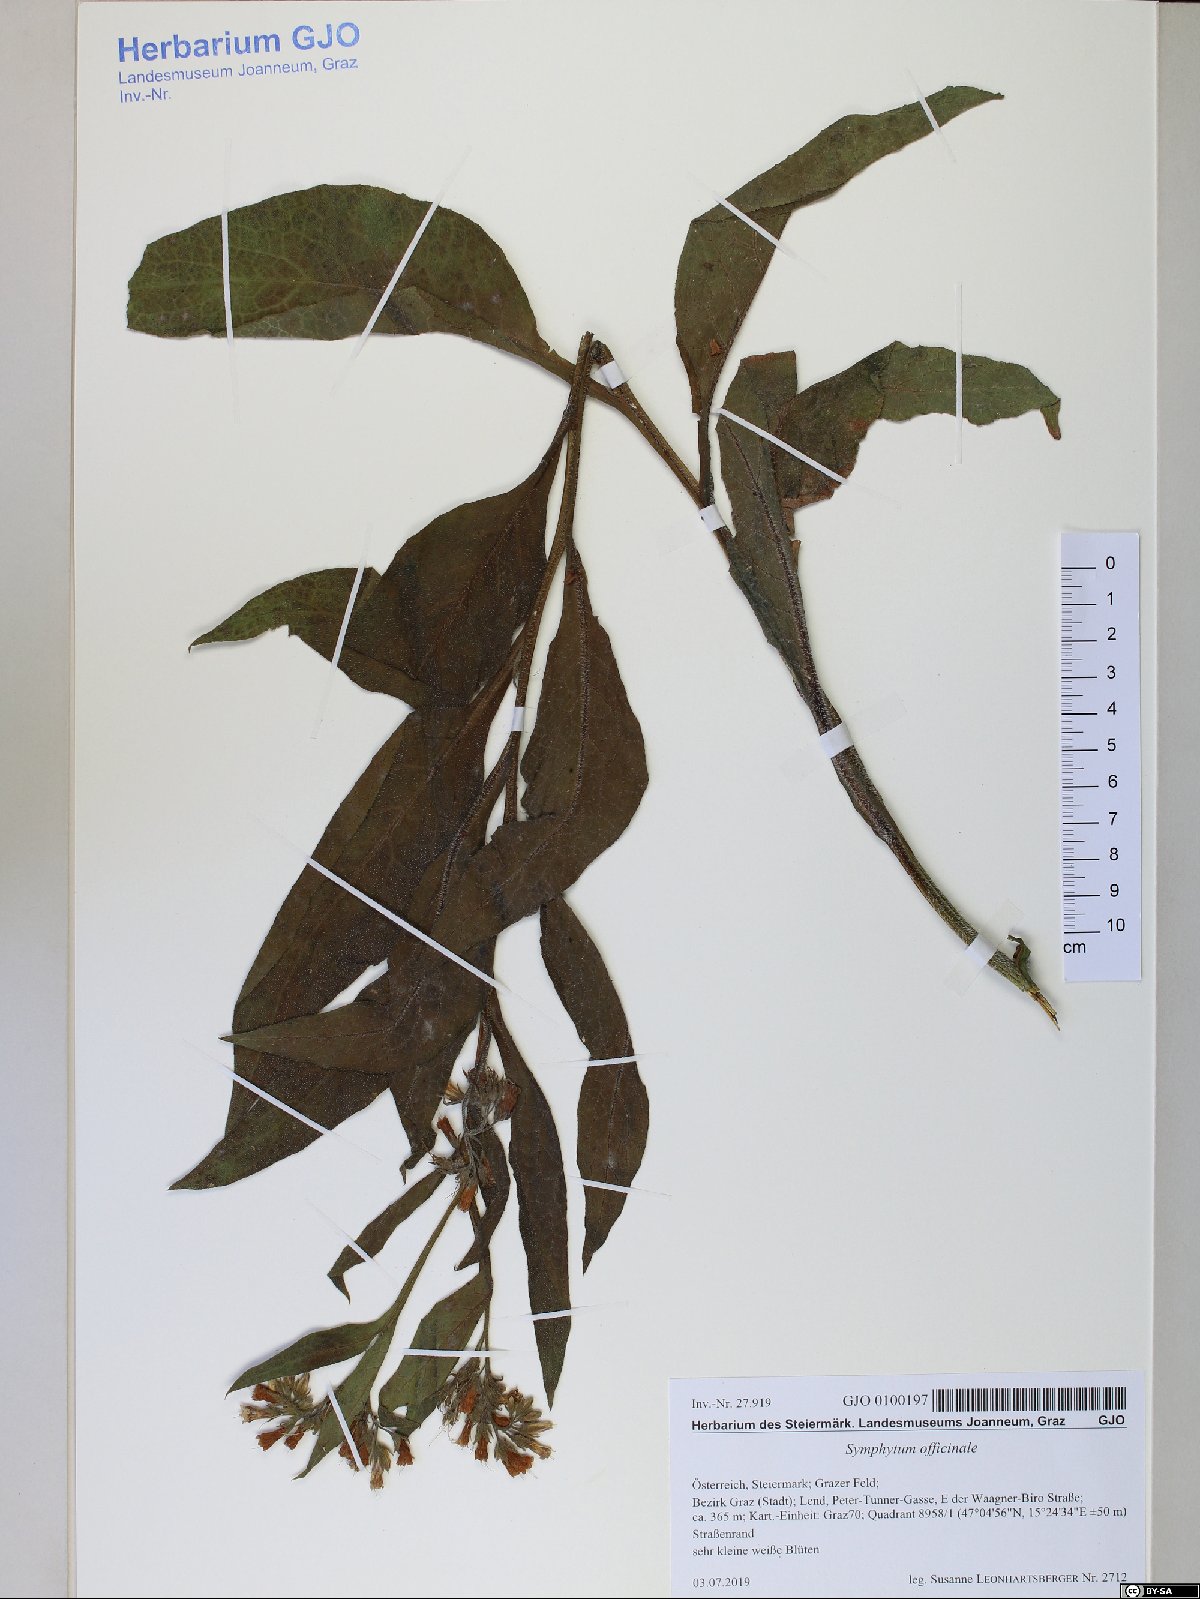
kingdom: Plantae
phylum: Tracheophyta
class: Magnoliopsida
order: Boraginales
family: Boraginaceae
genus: Symphytum
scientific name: Symphytum officinale
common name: Common comfrey
